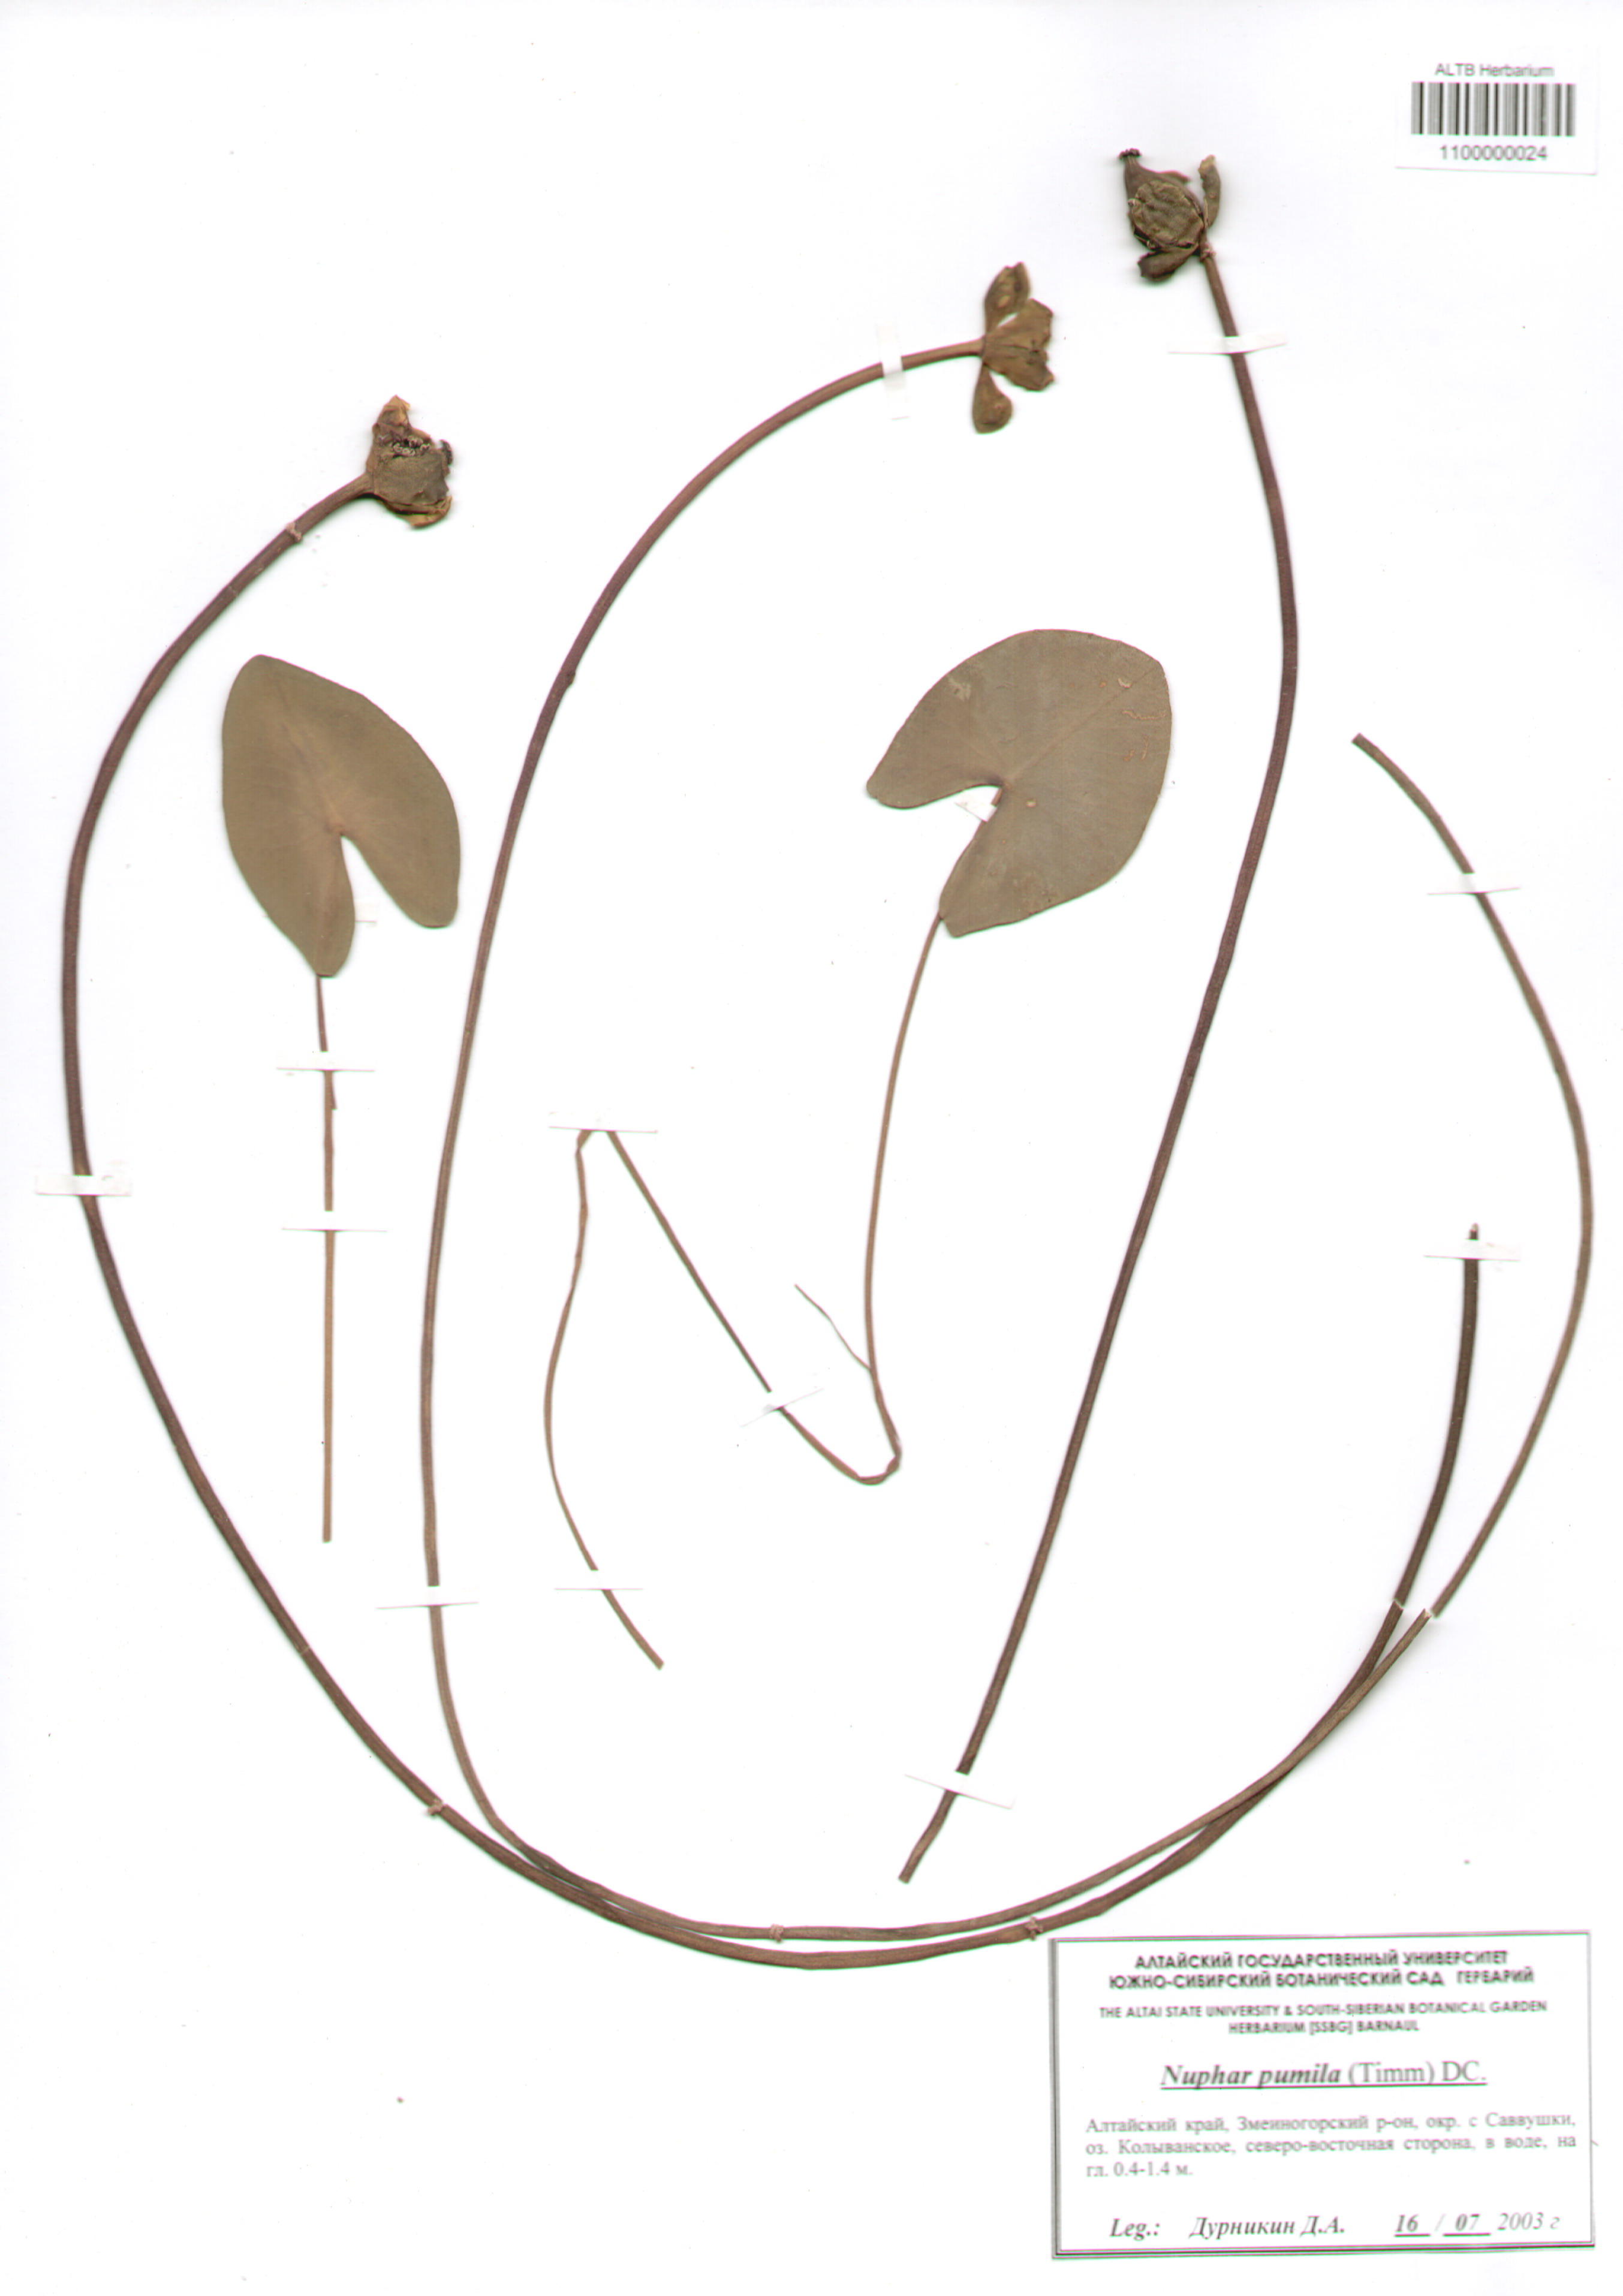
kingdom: Plantae
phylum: Tracheophyta
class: Magnoliopsida
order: Nymphaeales
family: Nymphaeaceae
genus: Nuphar
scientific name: Nuphar pumila
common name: Least water-lily
